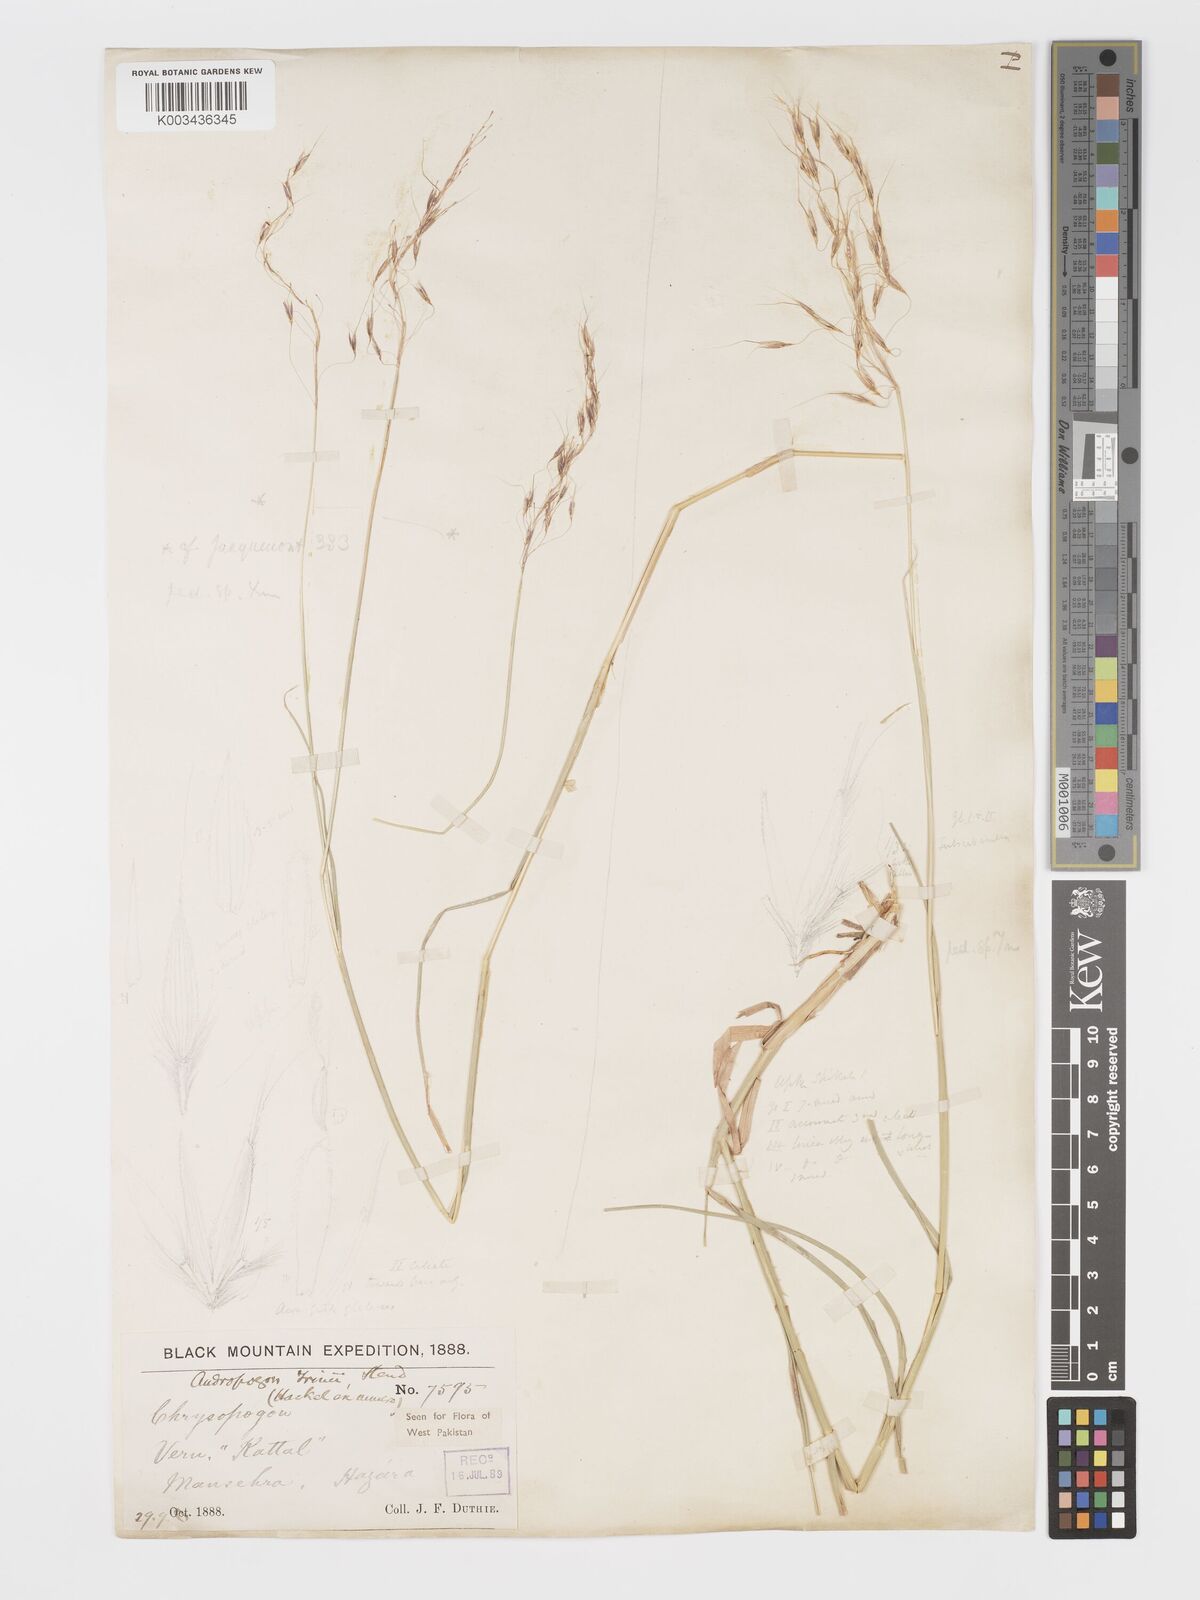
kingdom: Plantae
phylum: Tracheophyta
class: Liliopsida
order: Poales
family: Poaceae
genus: Chrysopogon
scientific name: Chrysopogon serrulatus
